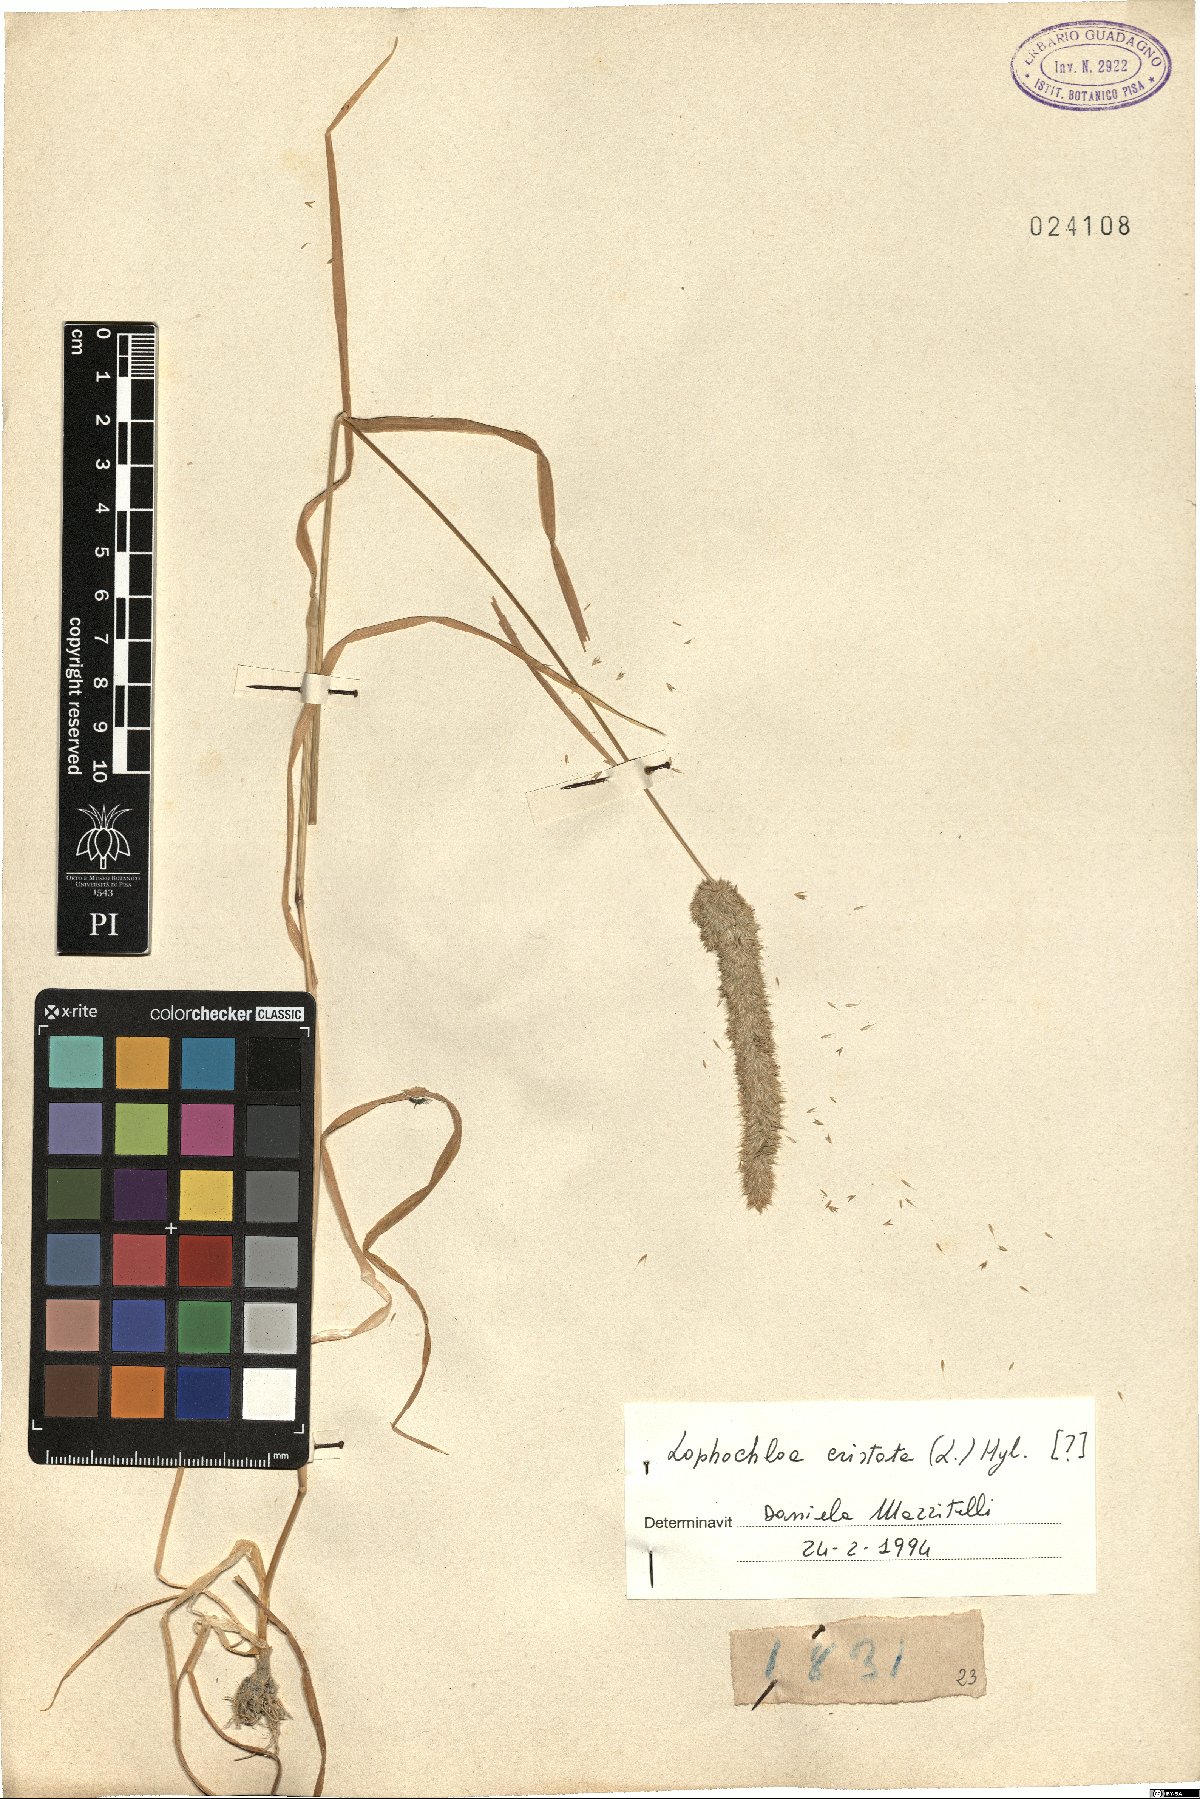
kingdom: Plantae
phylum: Tracheophyta
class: Liliopsida
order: Poales
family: Poaceae
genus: Rostraria
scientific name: Rostraria cristata
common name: Mediterranean hair-grass
